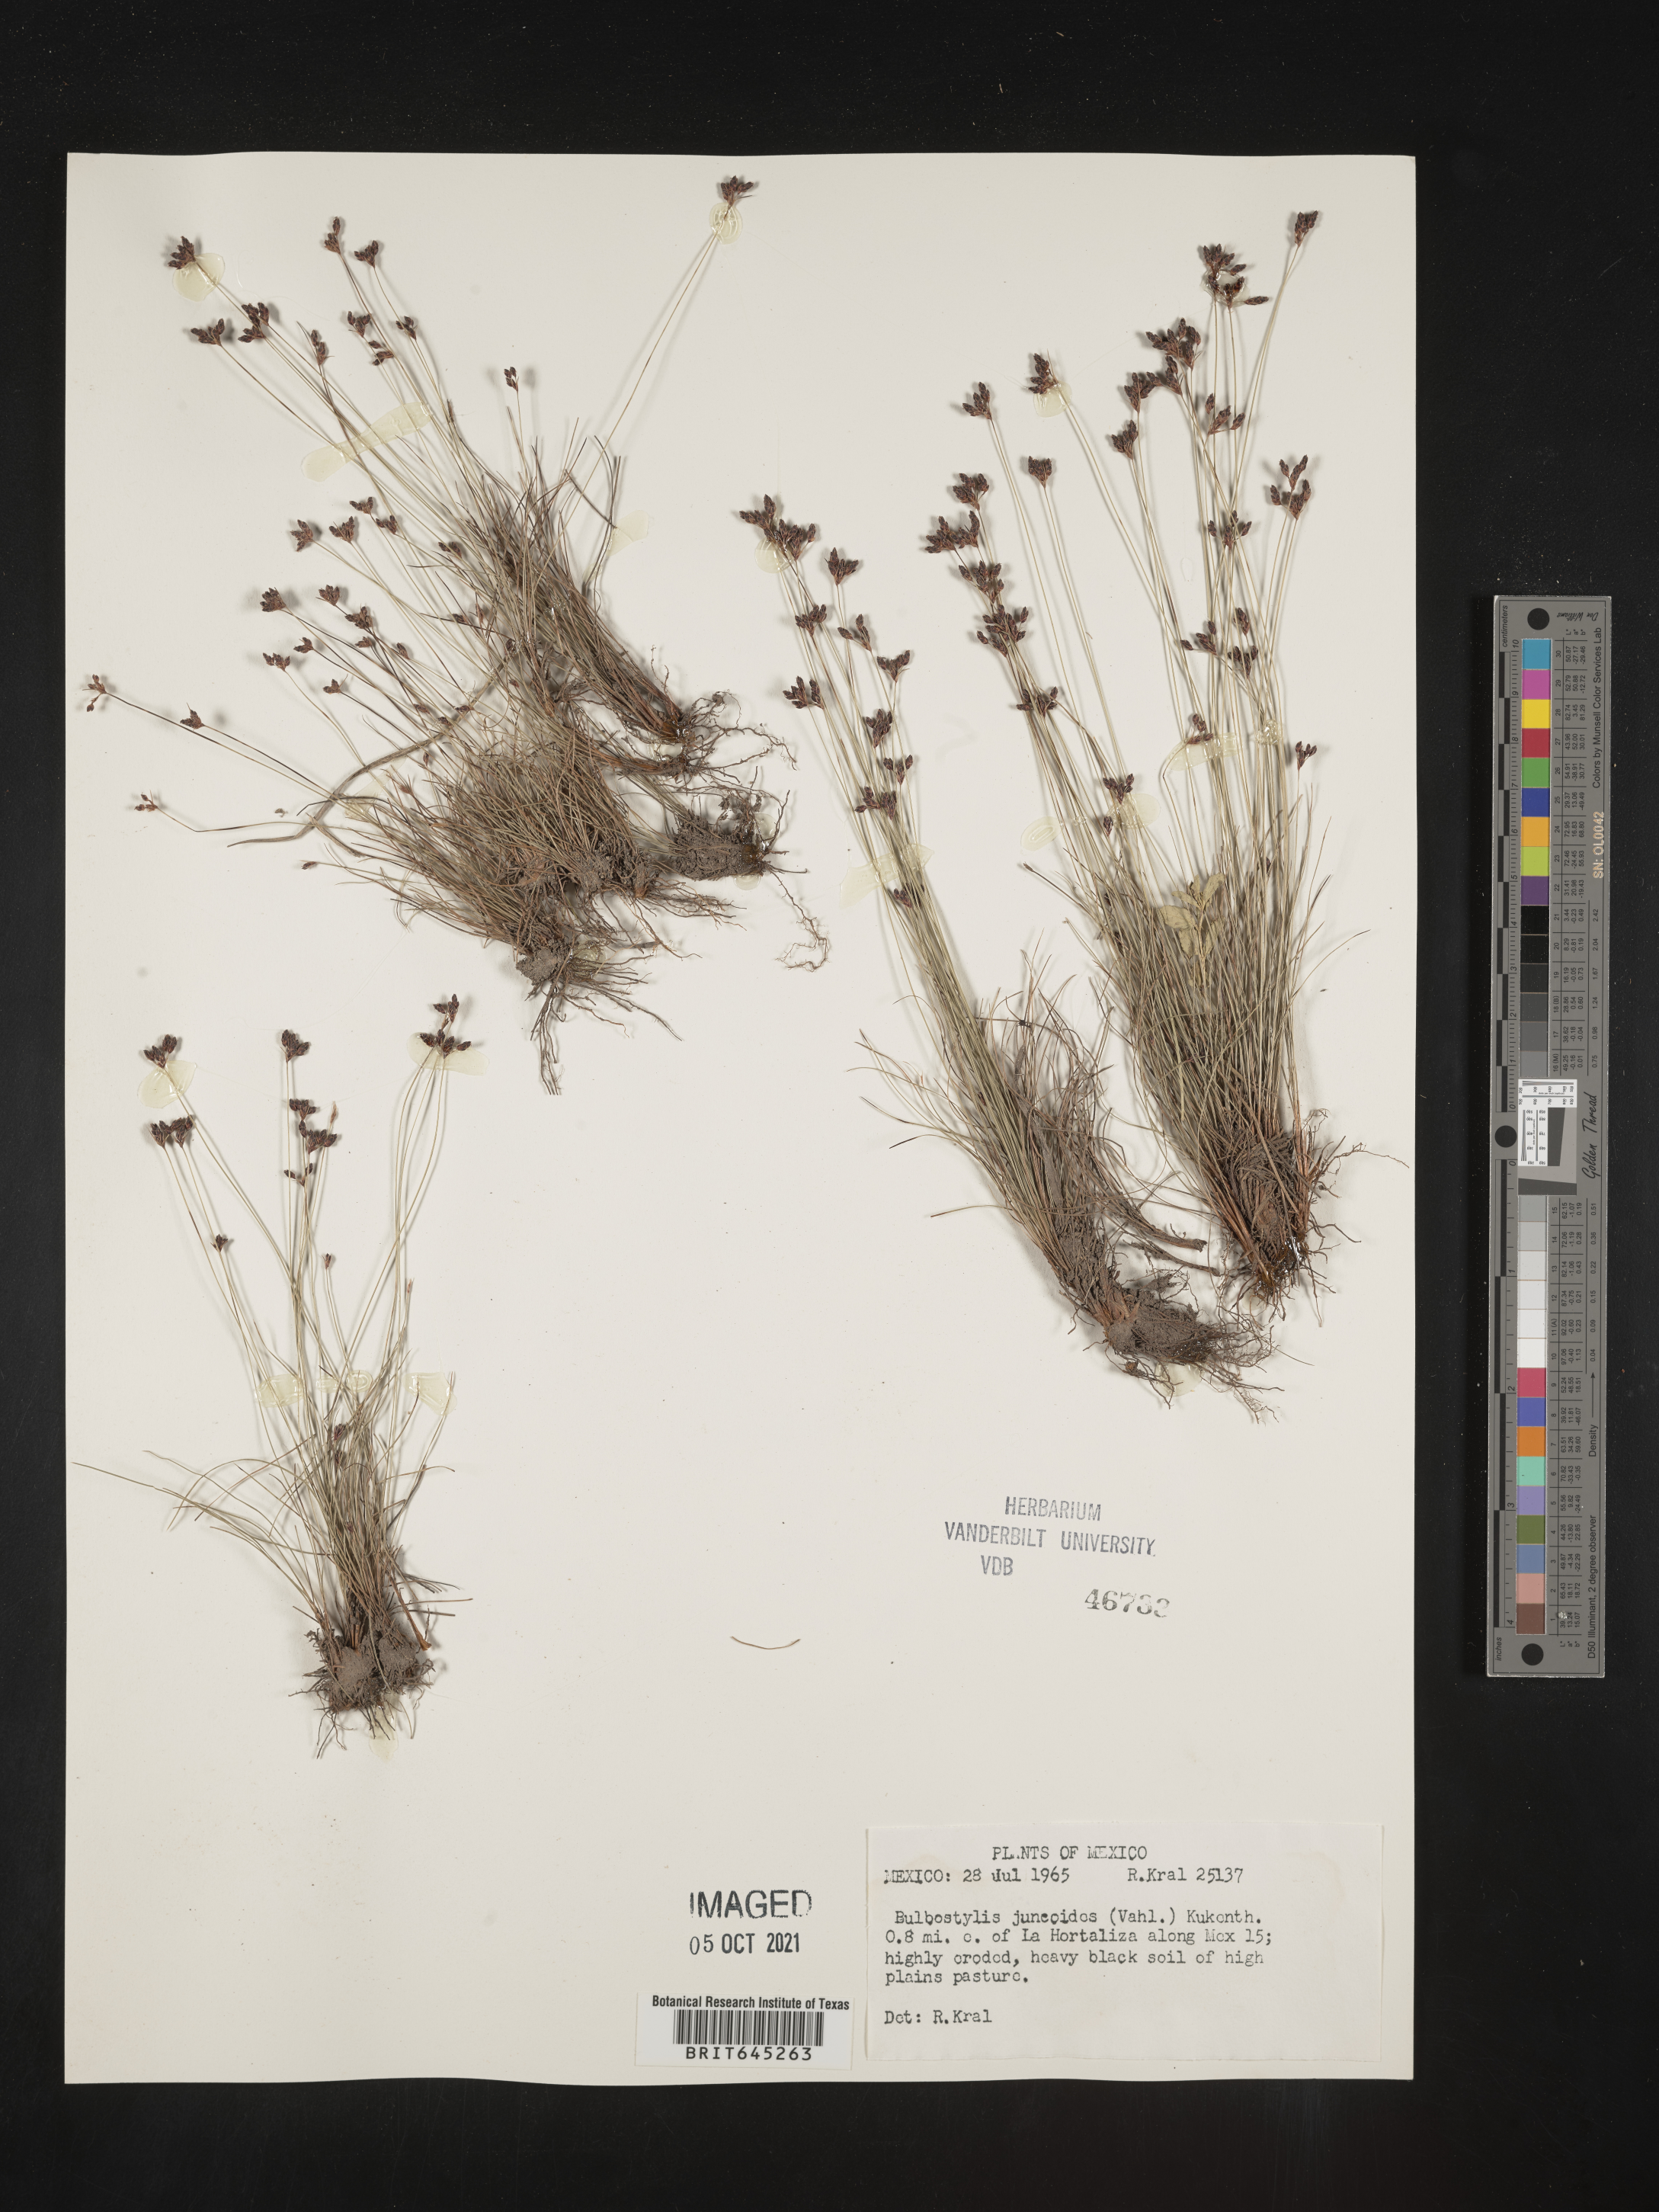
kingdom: Plantae
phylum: Tracheophyta
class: Liliopsida
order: Poales
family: Cyperaceae
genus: Bulbostylis
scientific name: Bulbostylis juncoides
